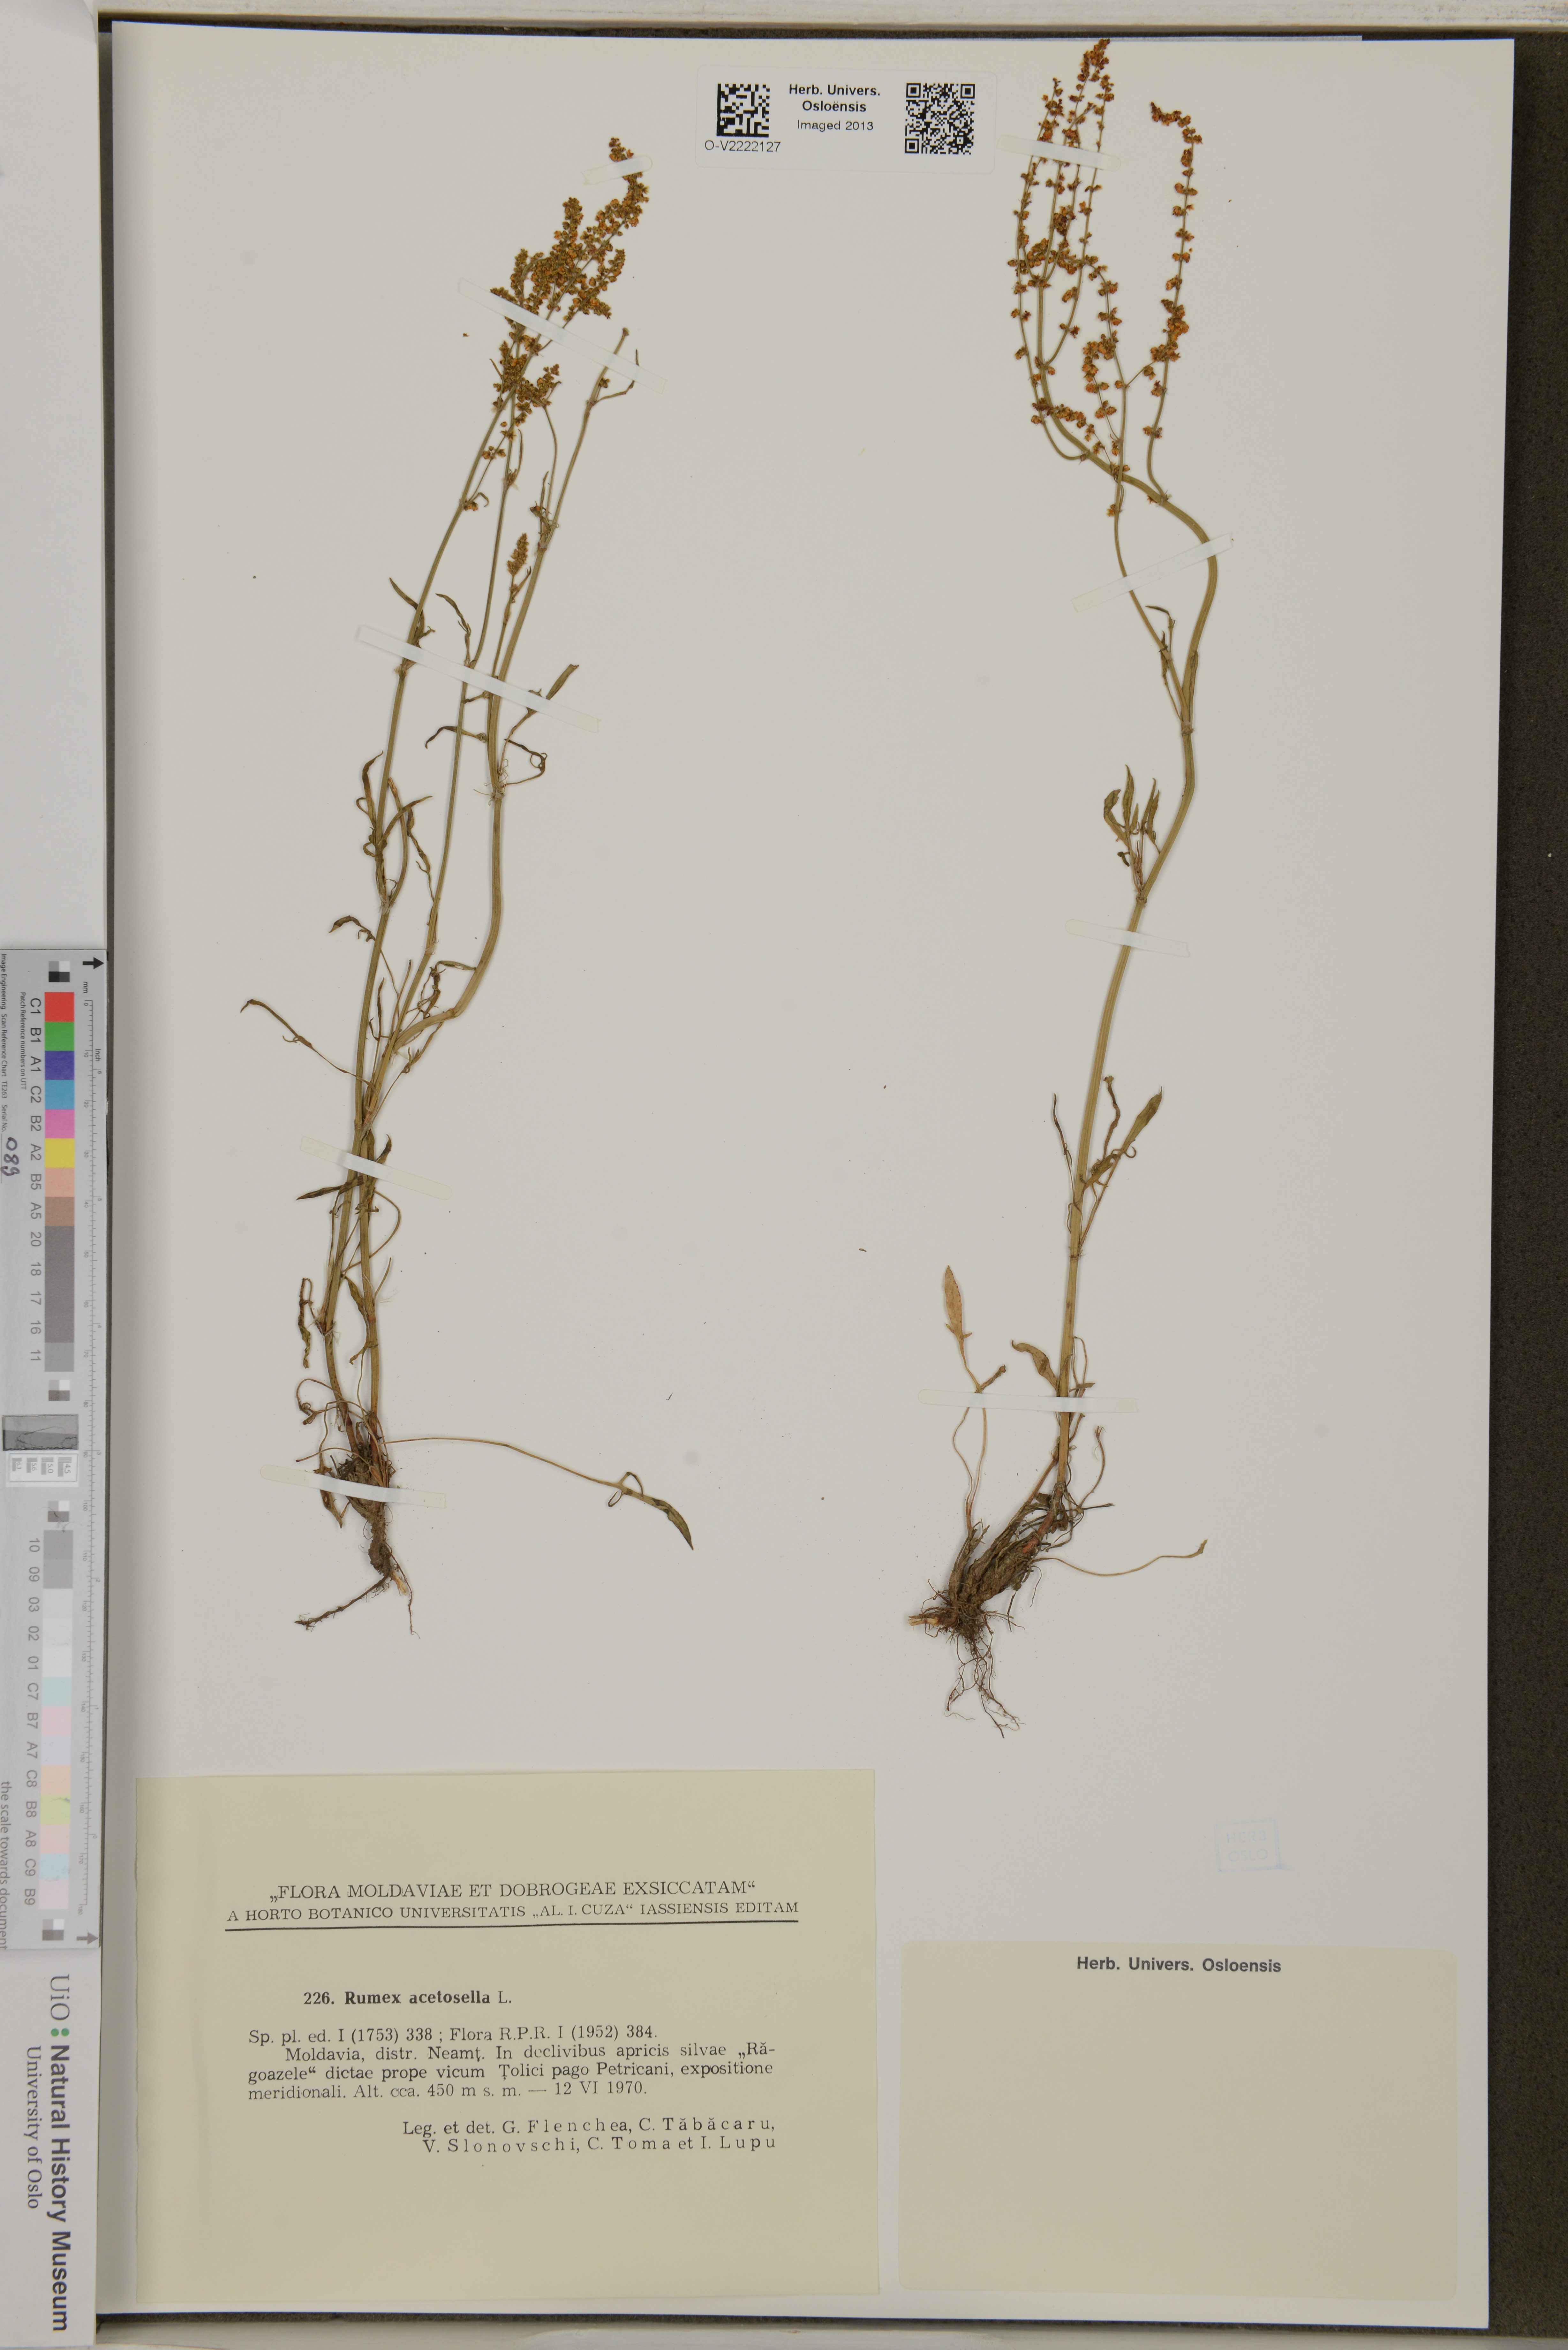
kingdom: Plantae
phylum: Tracheophyta
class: Magnoliopsida
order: Caryophyllales
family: Polygonaceae
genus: Rumex
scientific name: Rumex acetosella
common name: Common sheep sorrel
